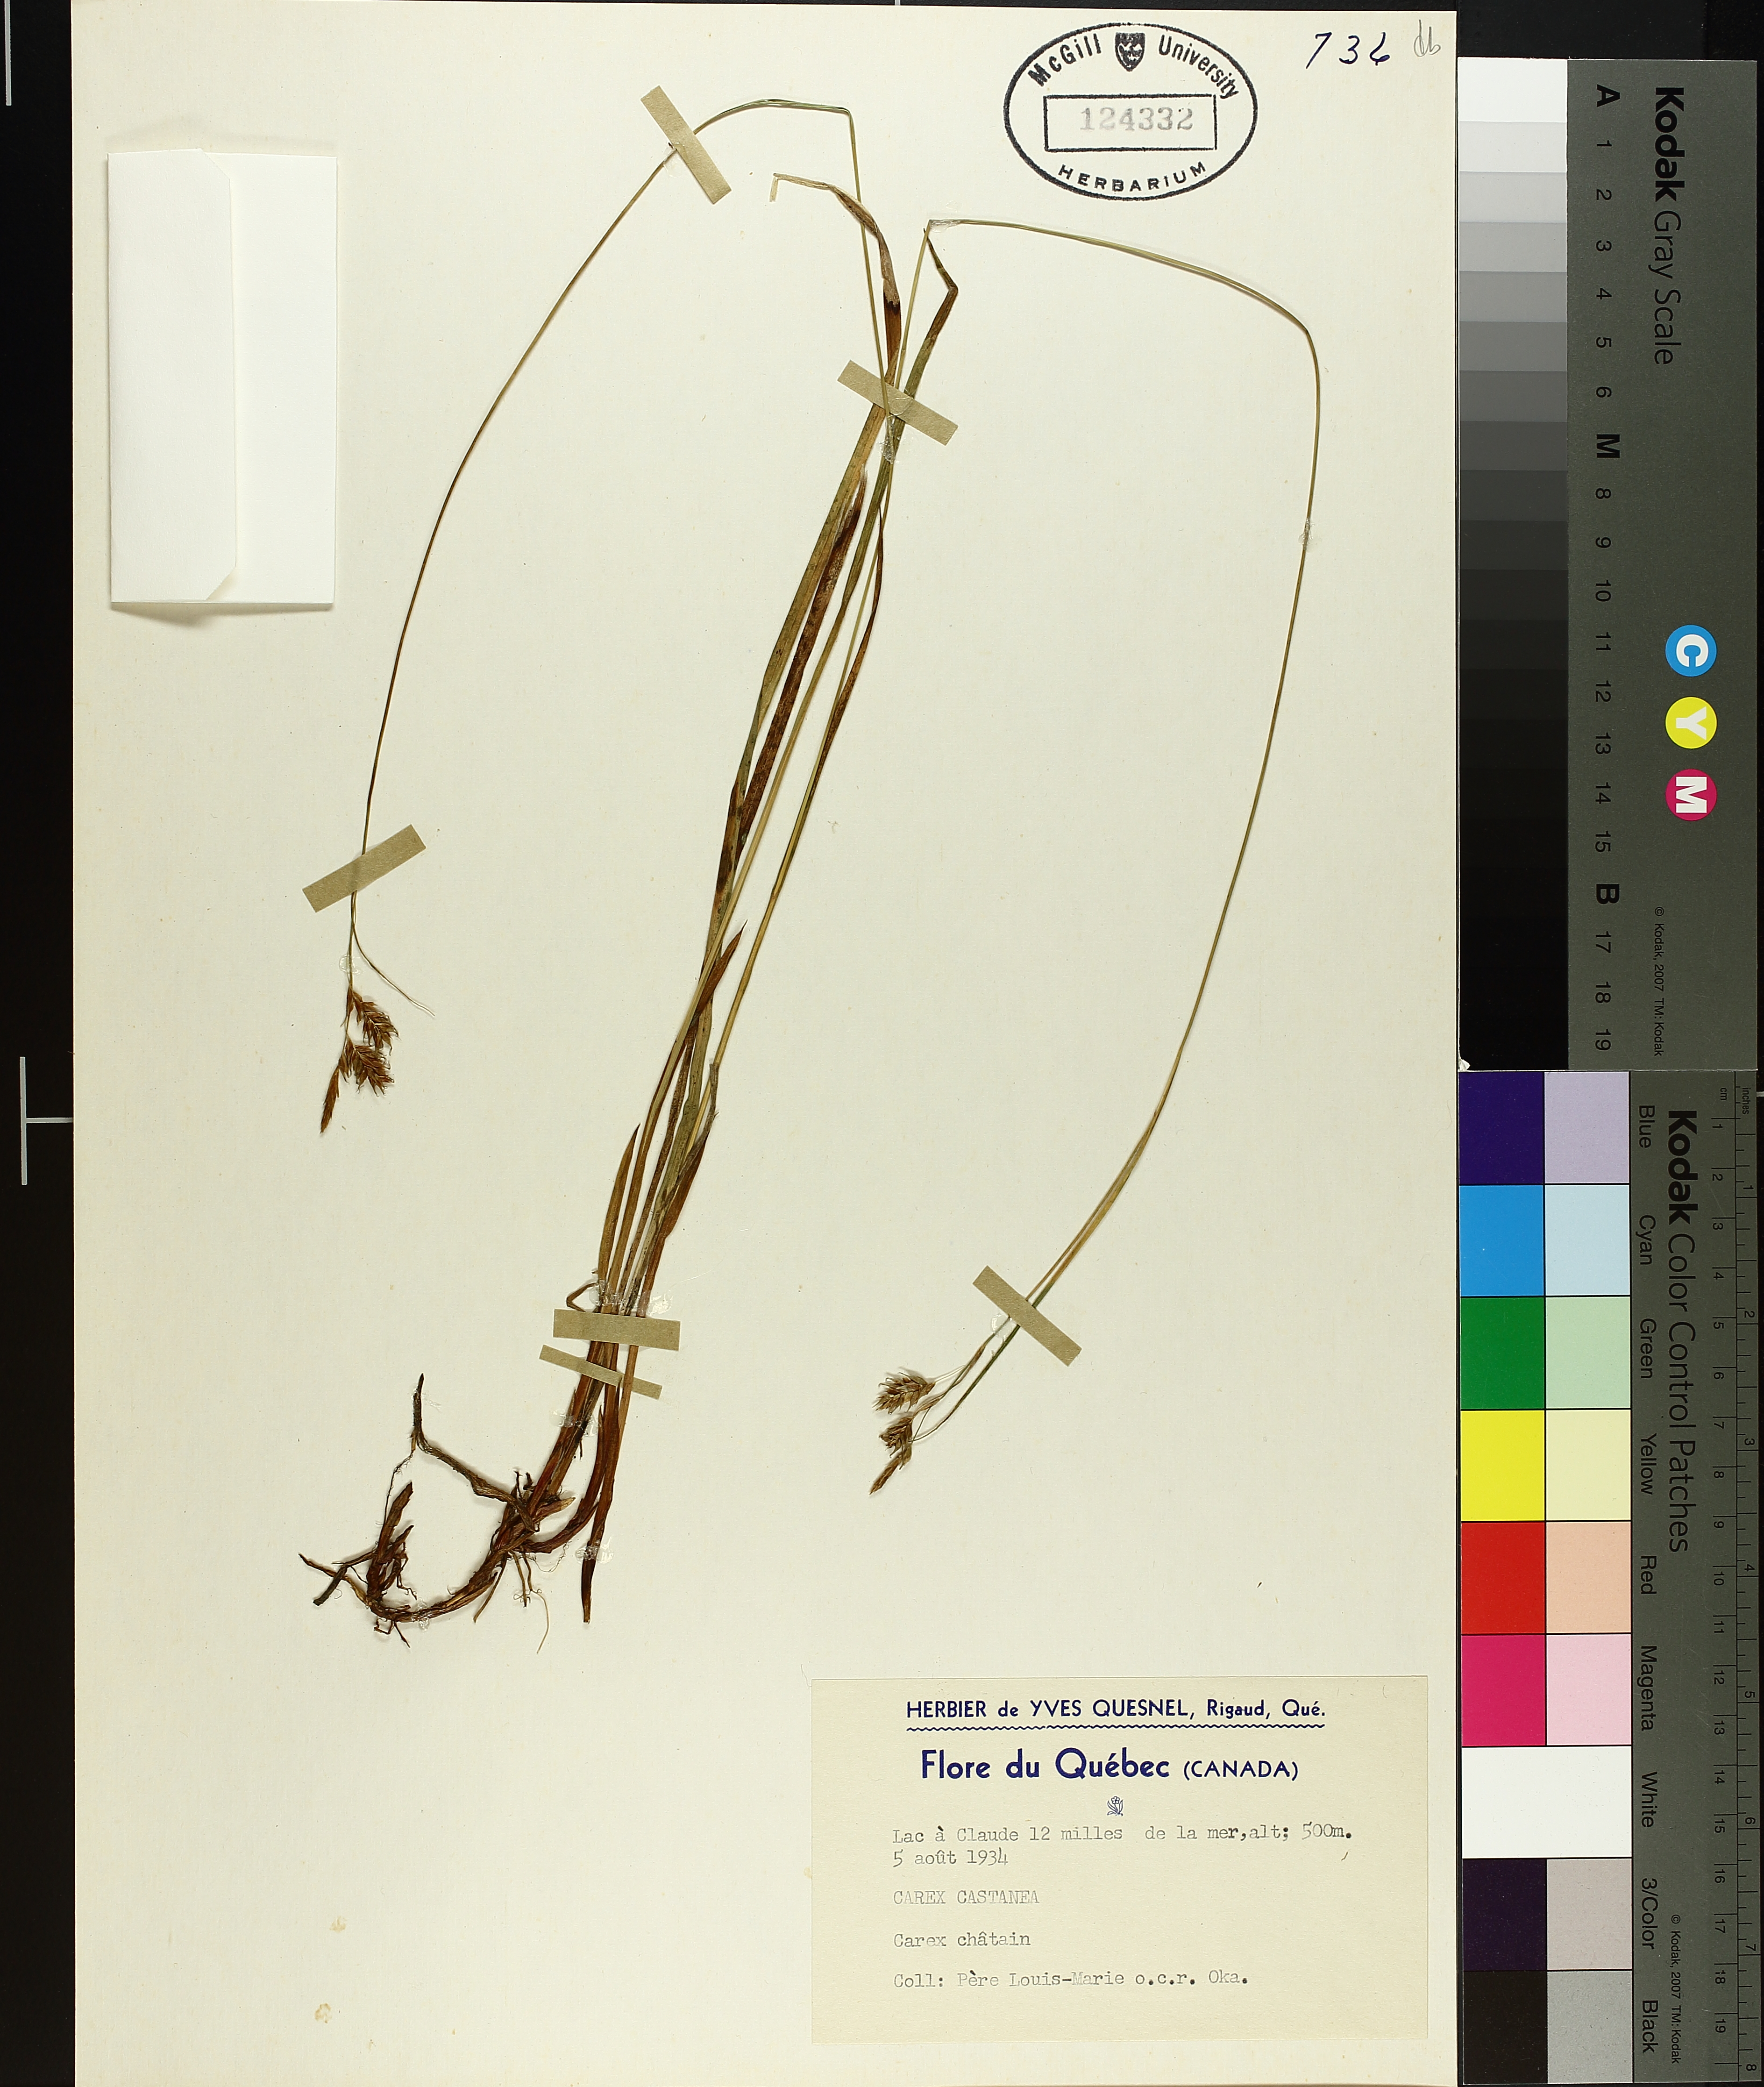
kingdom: Plantae
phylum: Tracheophyta
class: Liliopsida
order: Poales
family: Cyperaceae
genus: Carex
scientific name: Carex castanea
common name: Chestnut sedge
